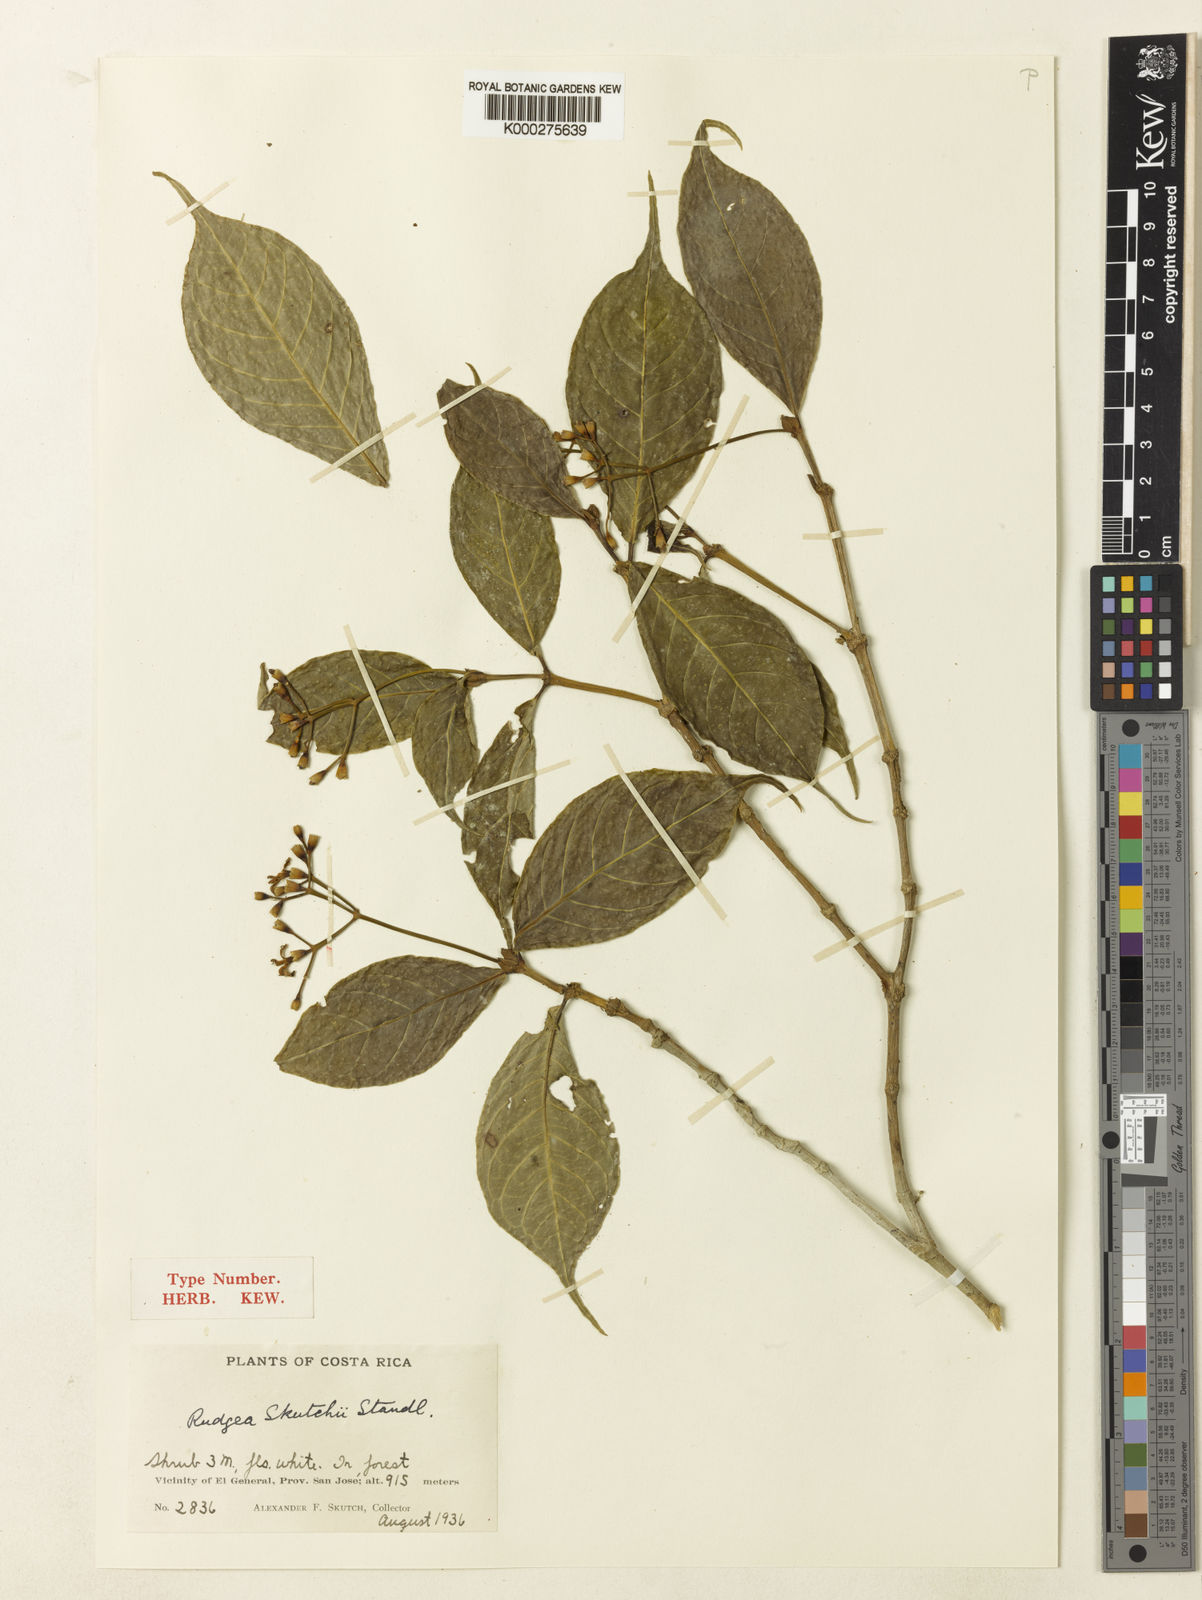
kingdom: Plantae
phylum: Tracheophyta
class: Magnoliopsida
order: Gentianales
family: Rubiaceae
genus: Rudgea
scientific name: Rudgea skutchii
